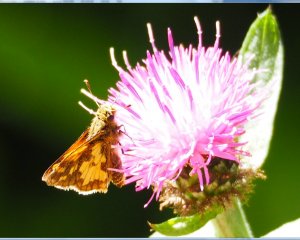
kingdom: Animalia
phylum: Arthropoda
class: Insecta
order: Lepidoptera
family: Hesperiidae
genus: Polites
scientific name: Polites coras
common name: Peck's Skipper
